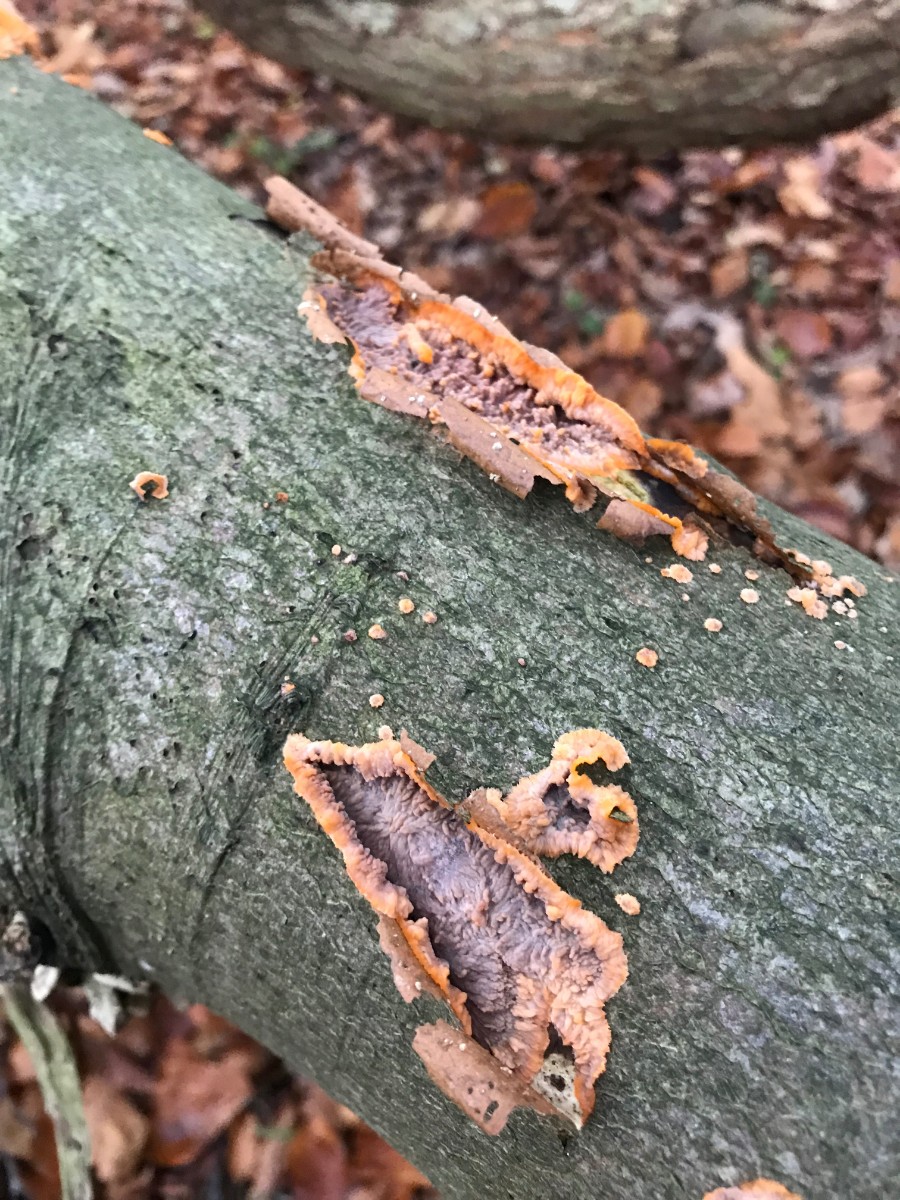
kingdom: Fungi
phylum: Basidiomycota
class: Agaricomycetes
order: Polyporales
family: Meruliaceae
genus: Phlebia
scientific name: Phlebia radiata
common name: stråle-åresvamp
